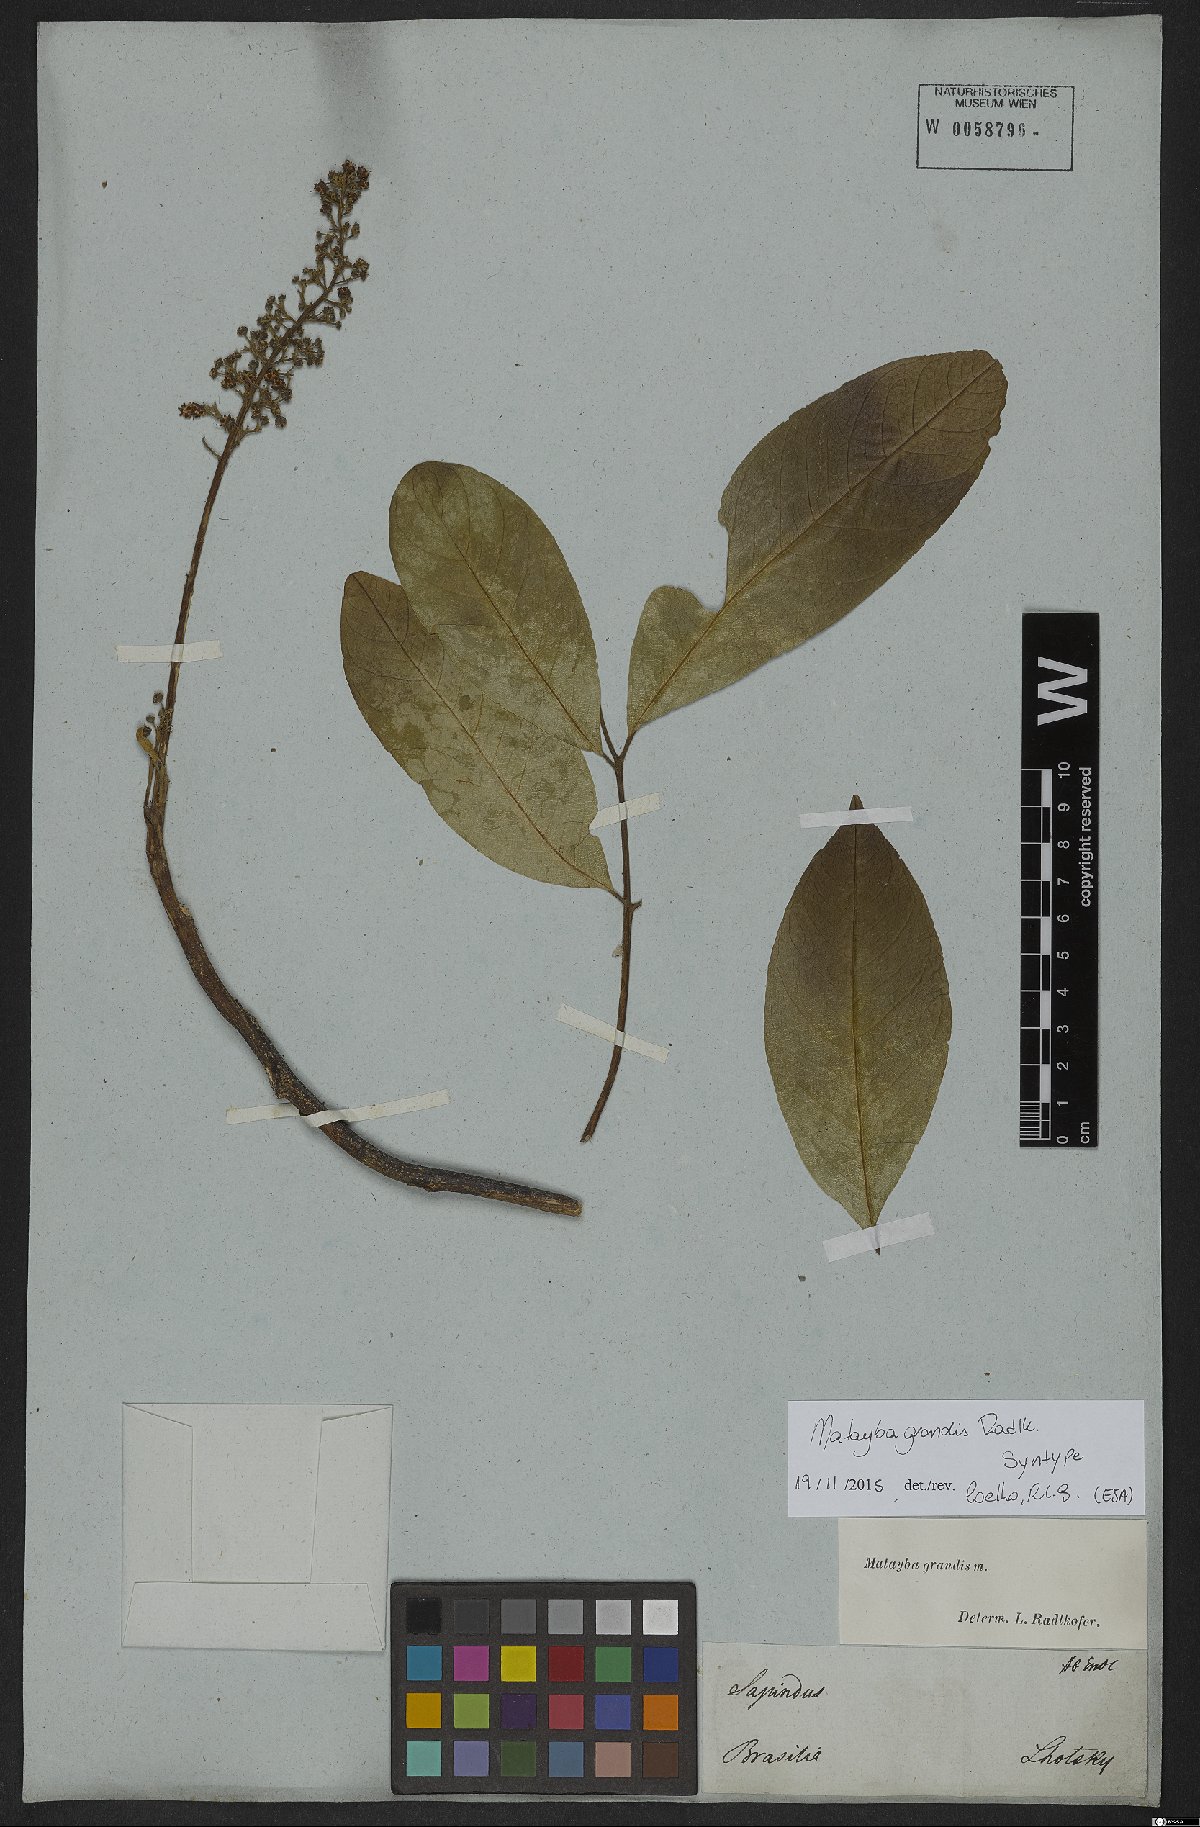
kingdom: Plantae
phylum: Tracheophyta
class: Magnoliopsida
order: Sapindales
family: Sapindaceae
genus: Matayba
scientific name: Matayba grandis
